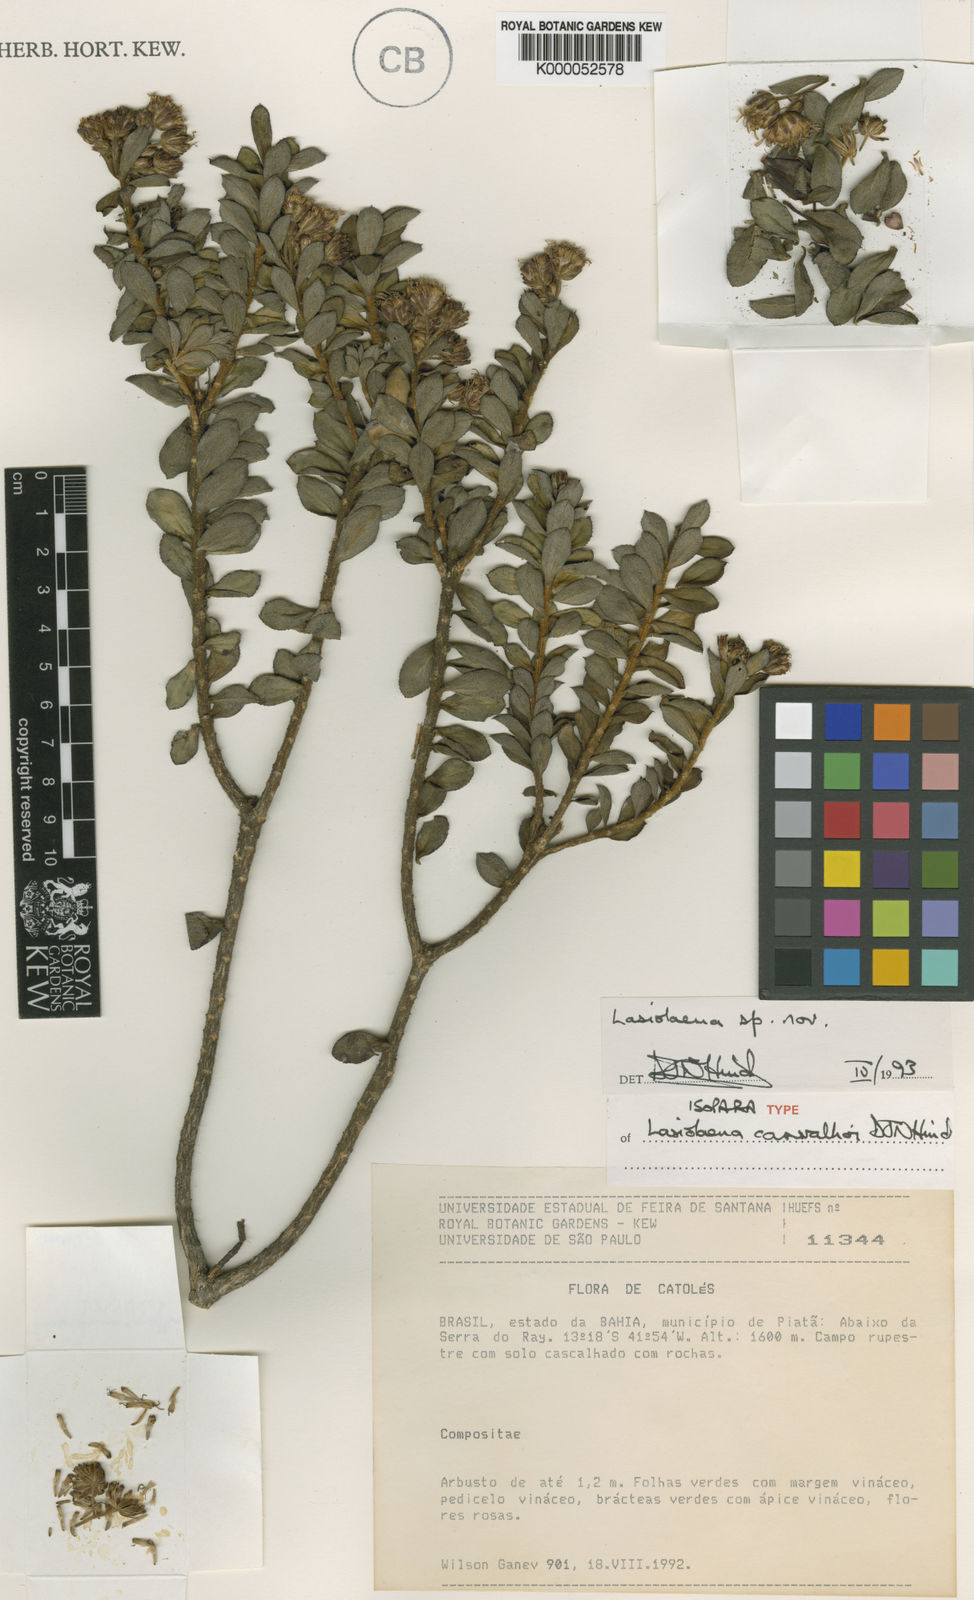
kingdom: Plantae
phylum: Tracheophyta
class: Magnoliopsida
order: Asterales
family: Asteraceae
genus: Lasiolaena
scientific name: Lasiolaena carvalhoi
